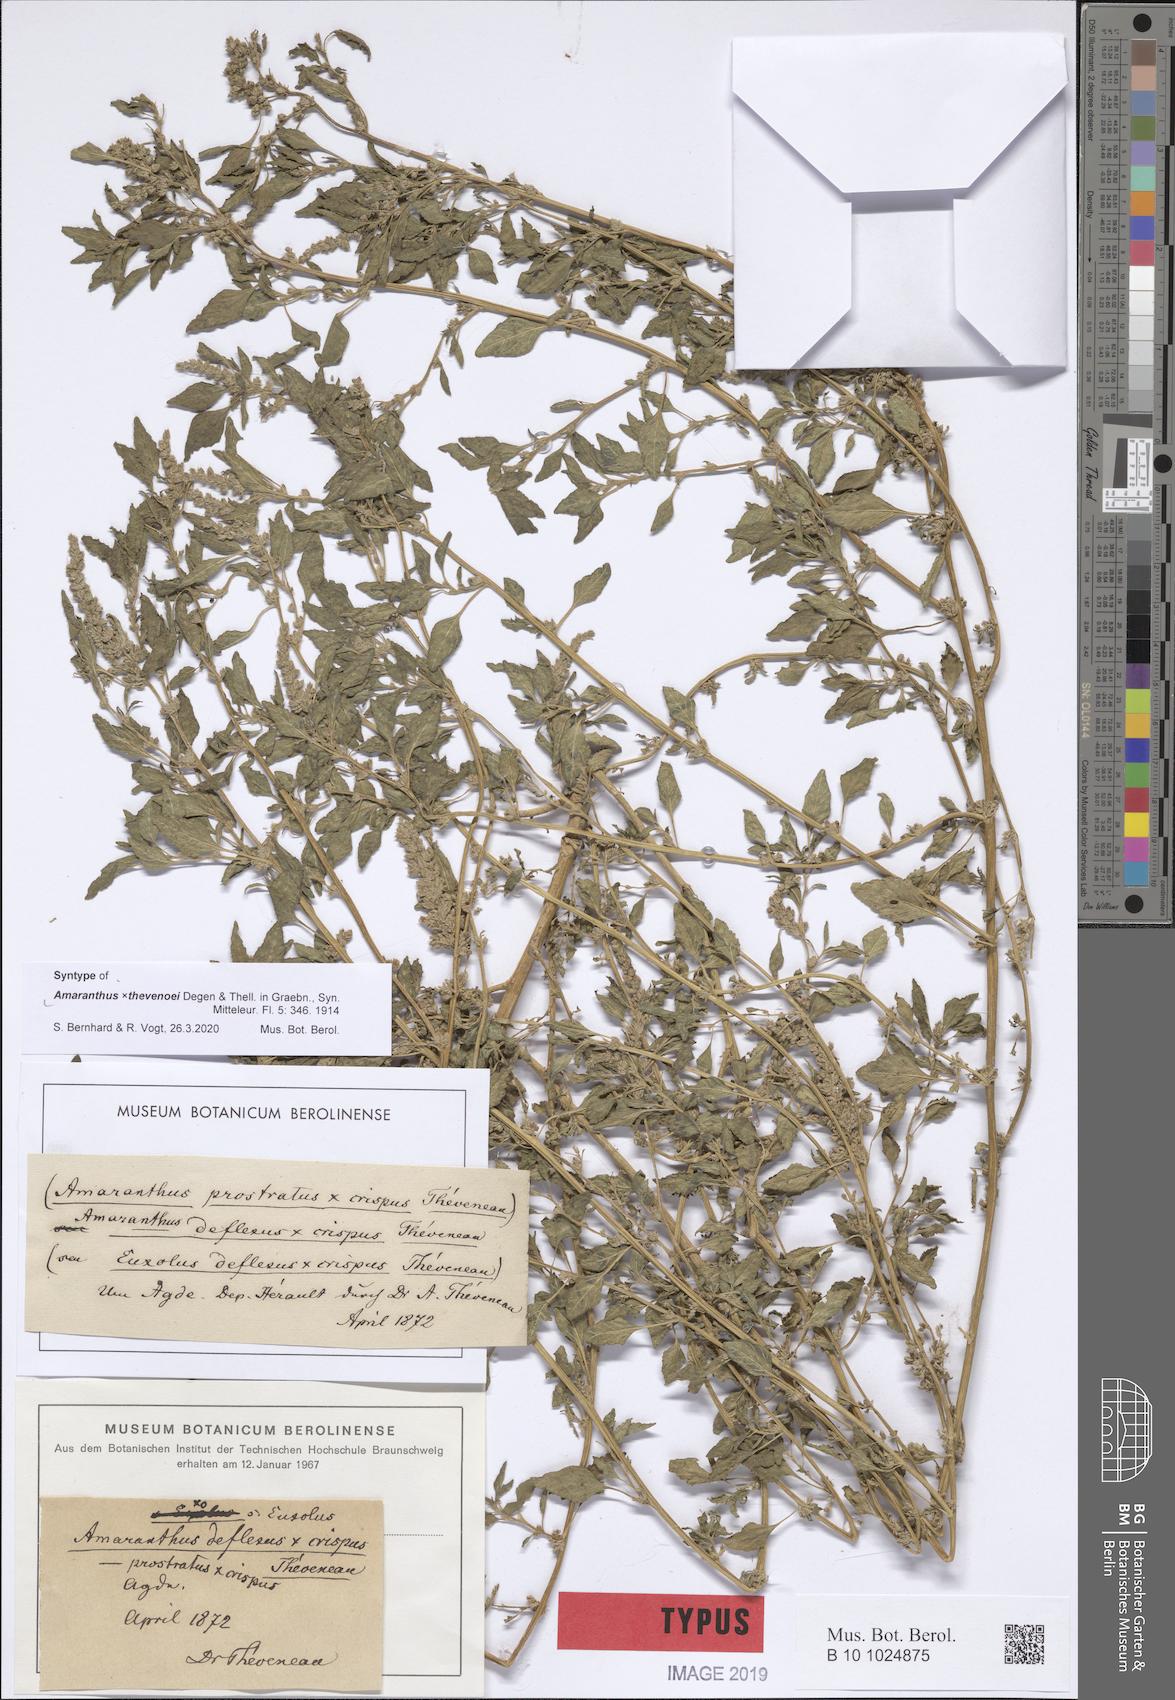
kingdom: Plantae
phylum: Tracheophyta
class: Magnoliopsida
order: Caryophyllales
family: Amaranthaceae
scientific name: Amaranthaceae
